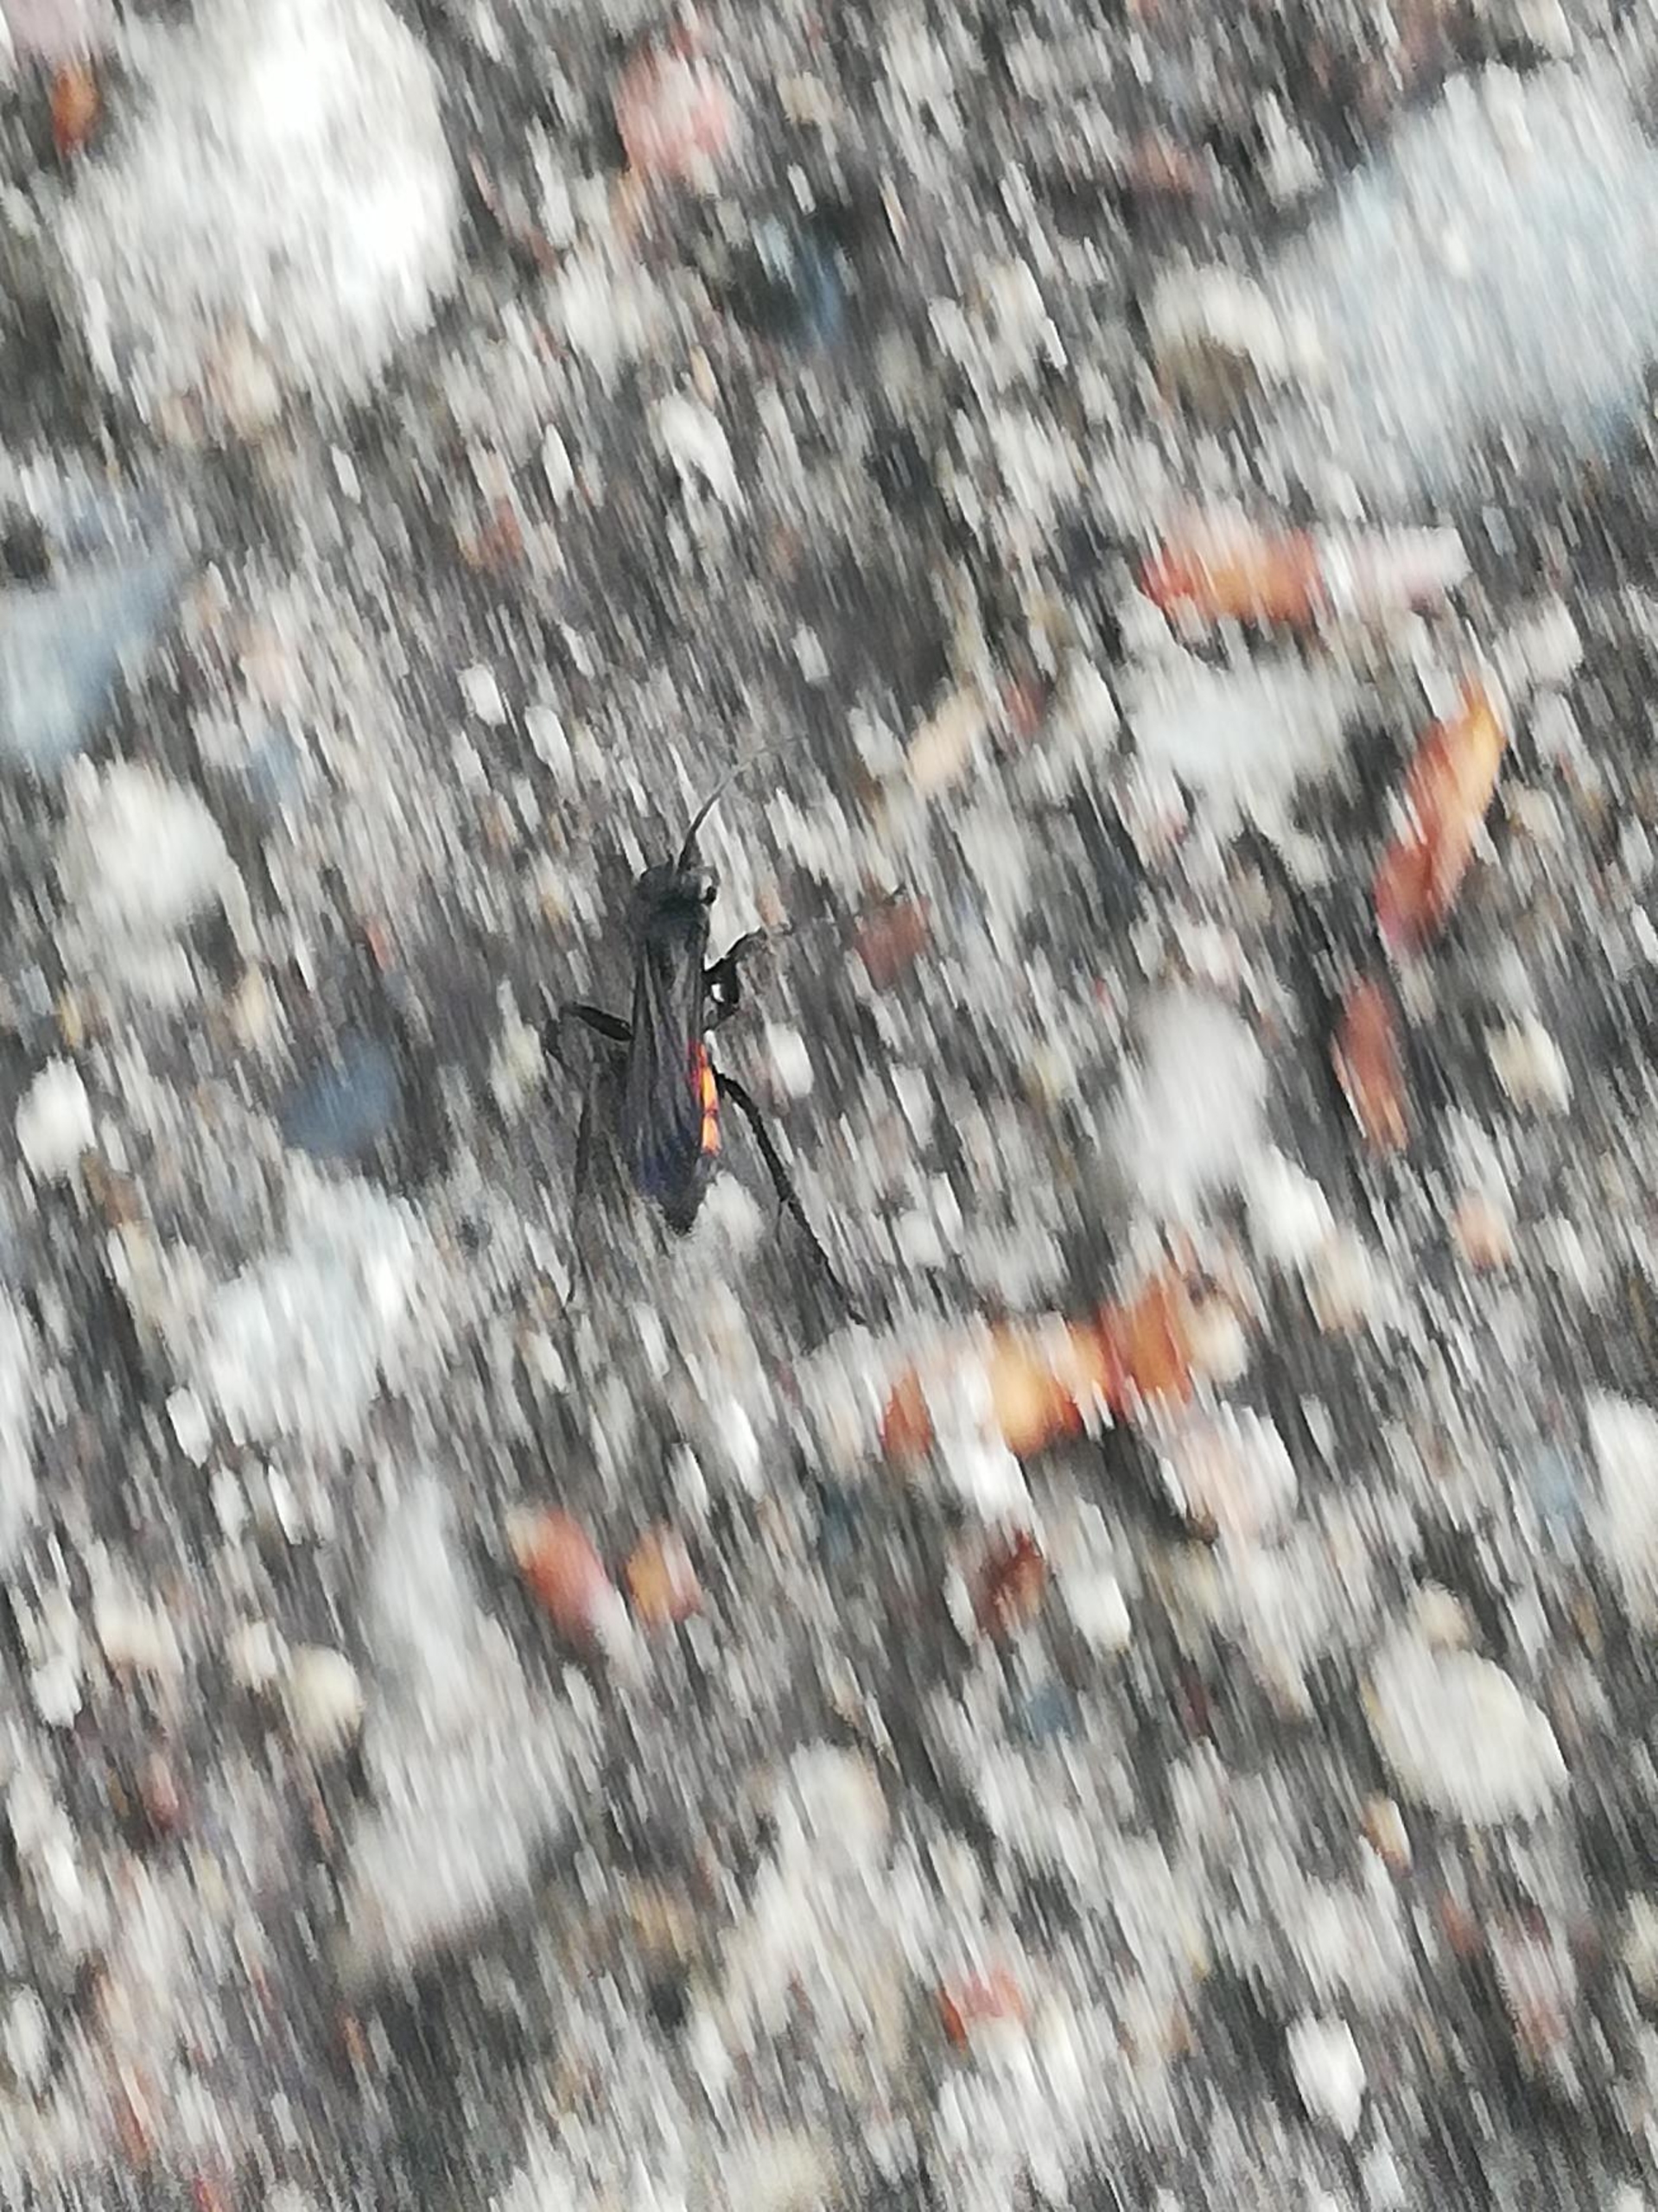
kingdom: Animalia
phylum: Arthropoda
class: Insecta
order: Hymenoptera
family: Pompilidae
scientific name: Pompilidae
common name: Vejhvepse
